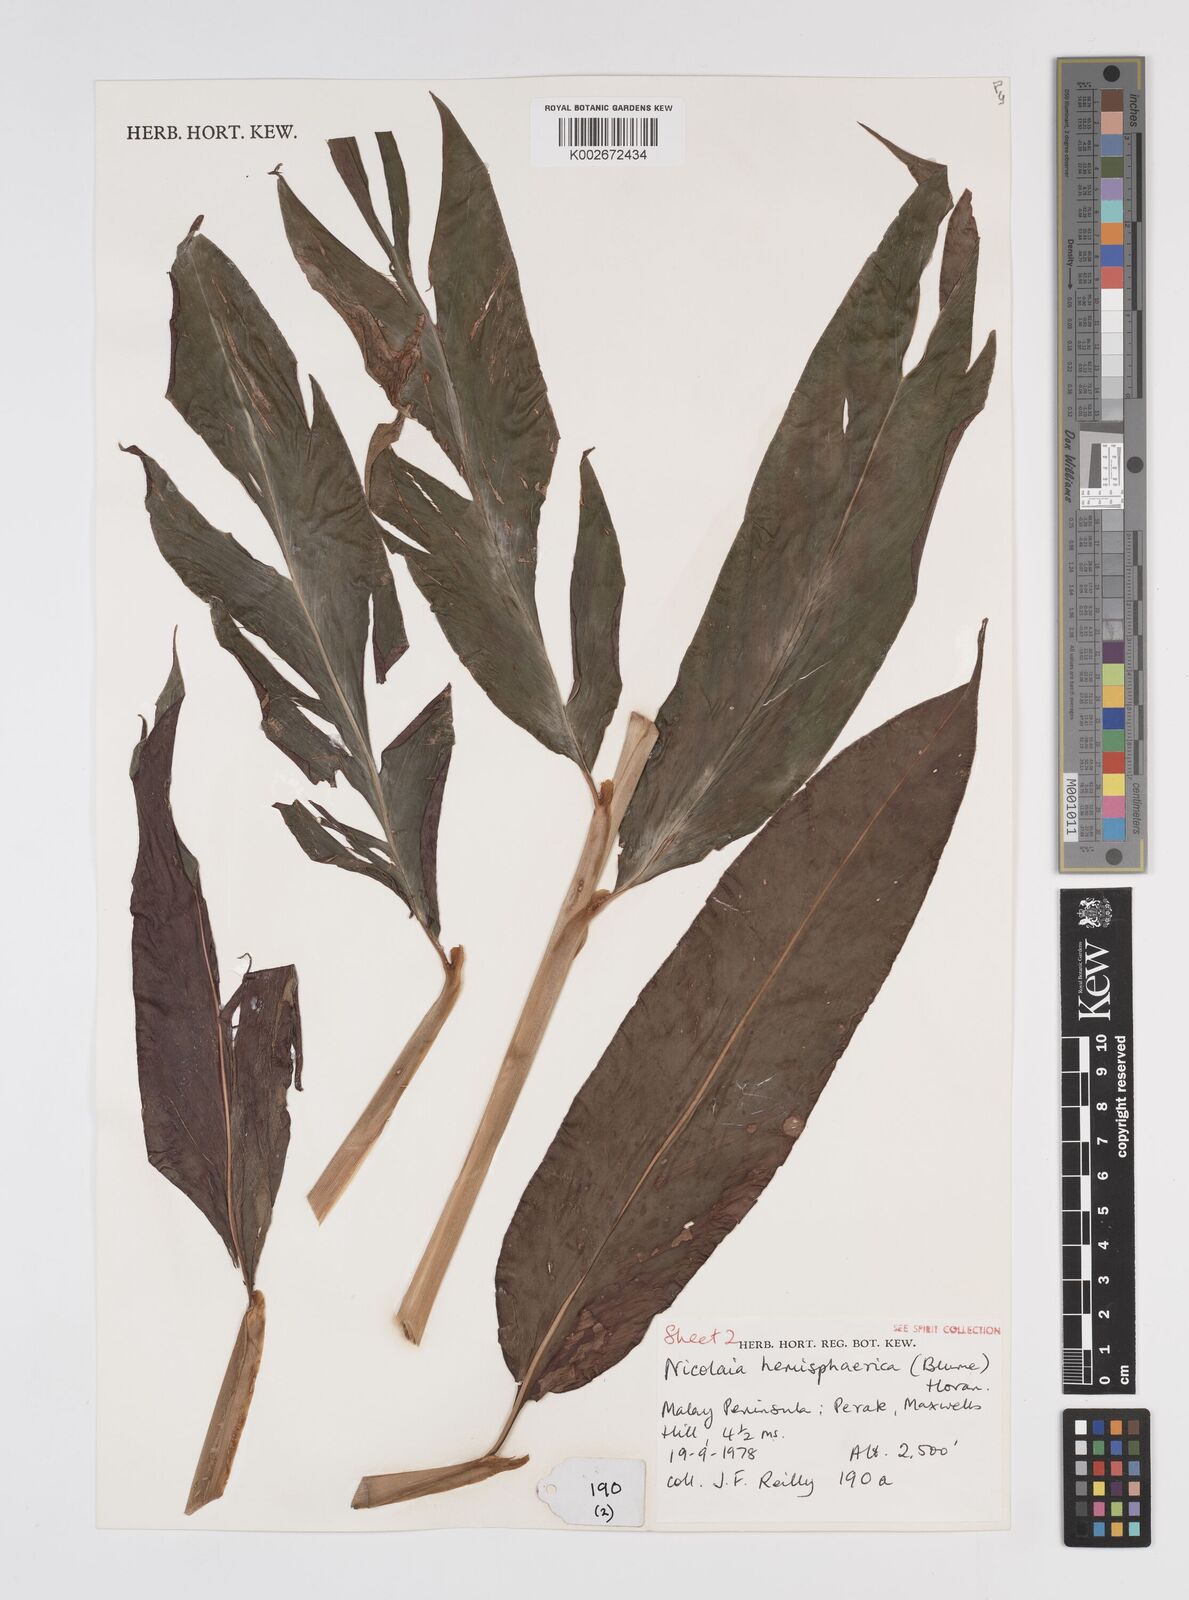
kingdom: Plantae
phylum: Tracheophyta
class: Liliopsida
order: Zingiberales
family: Zingiberaceae
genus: Etlingera
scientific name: Etlingera fulgens
